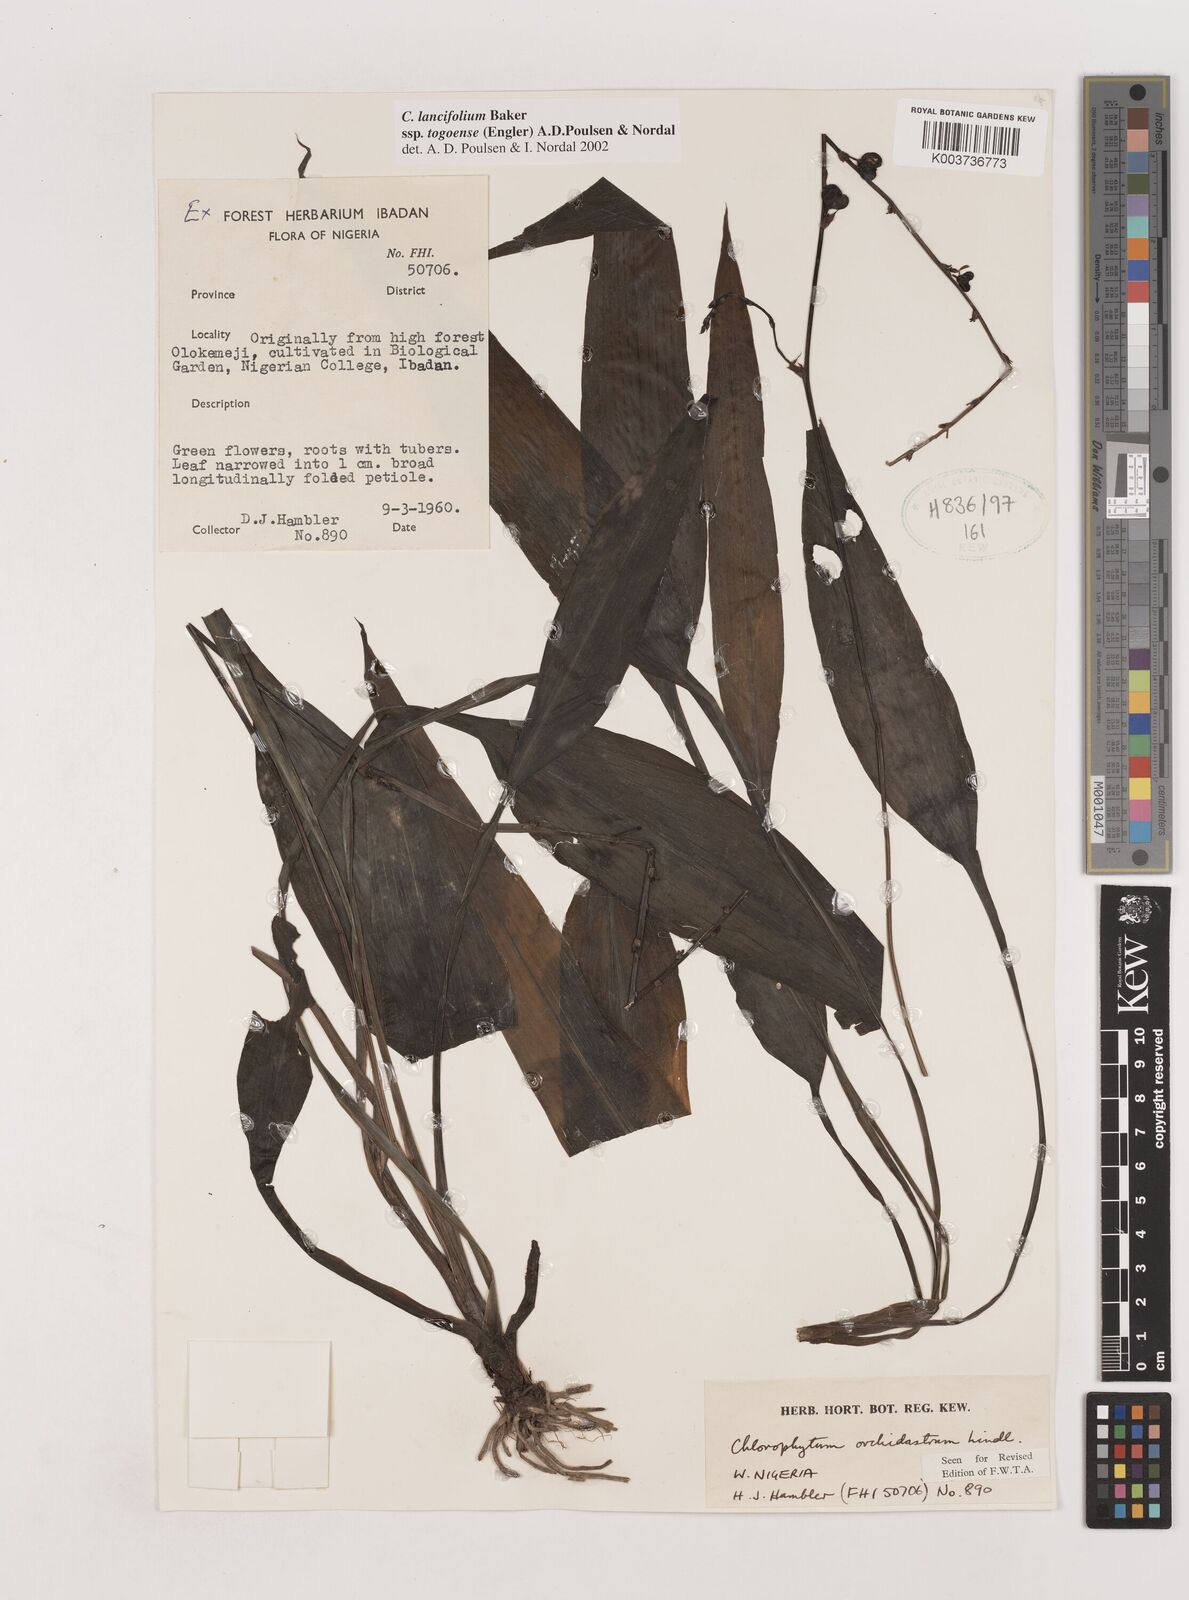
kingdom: Plantae
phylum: Tracheophyta
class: Liliopsida
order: Asparagales
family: Asparagaceae
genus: Chlorophytum
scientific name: Chlorophytum lancifolium
